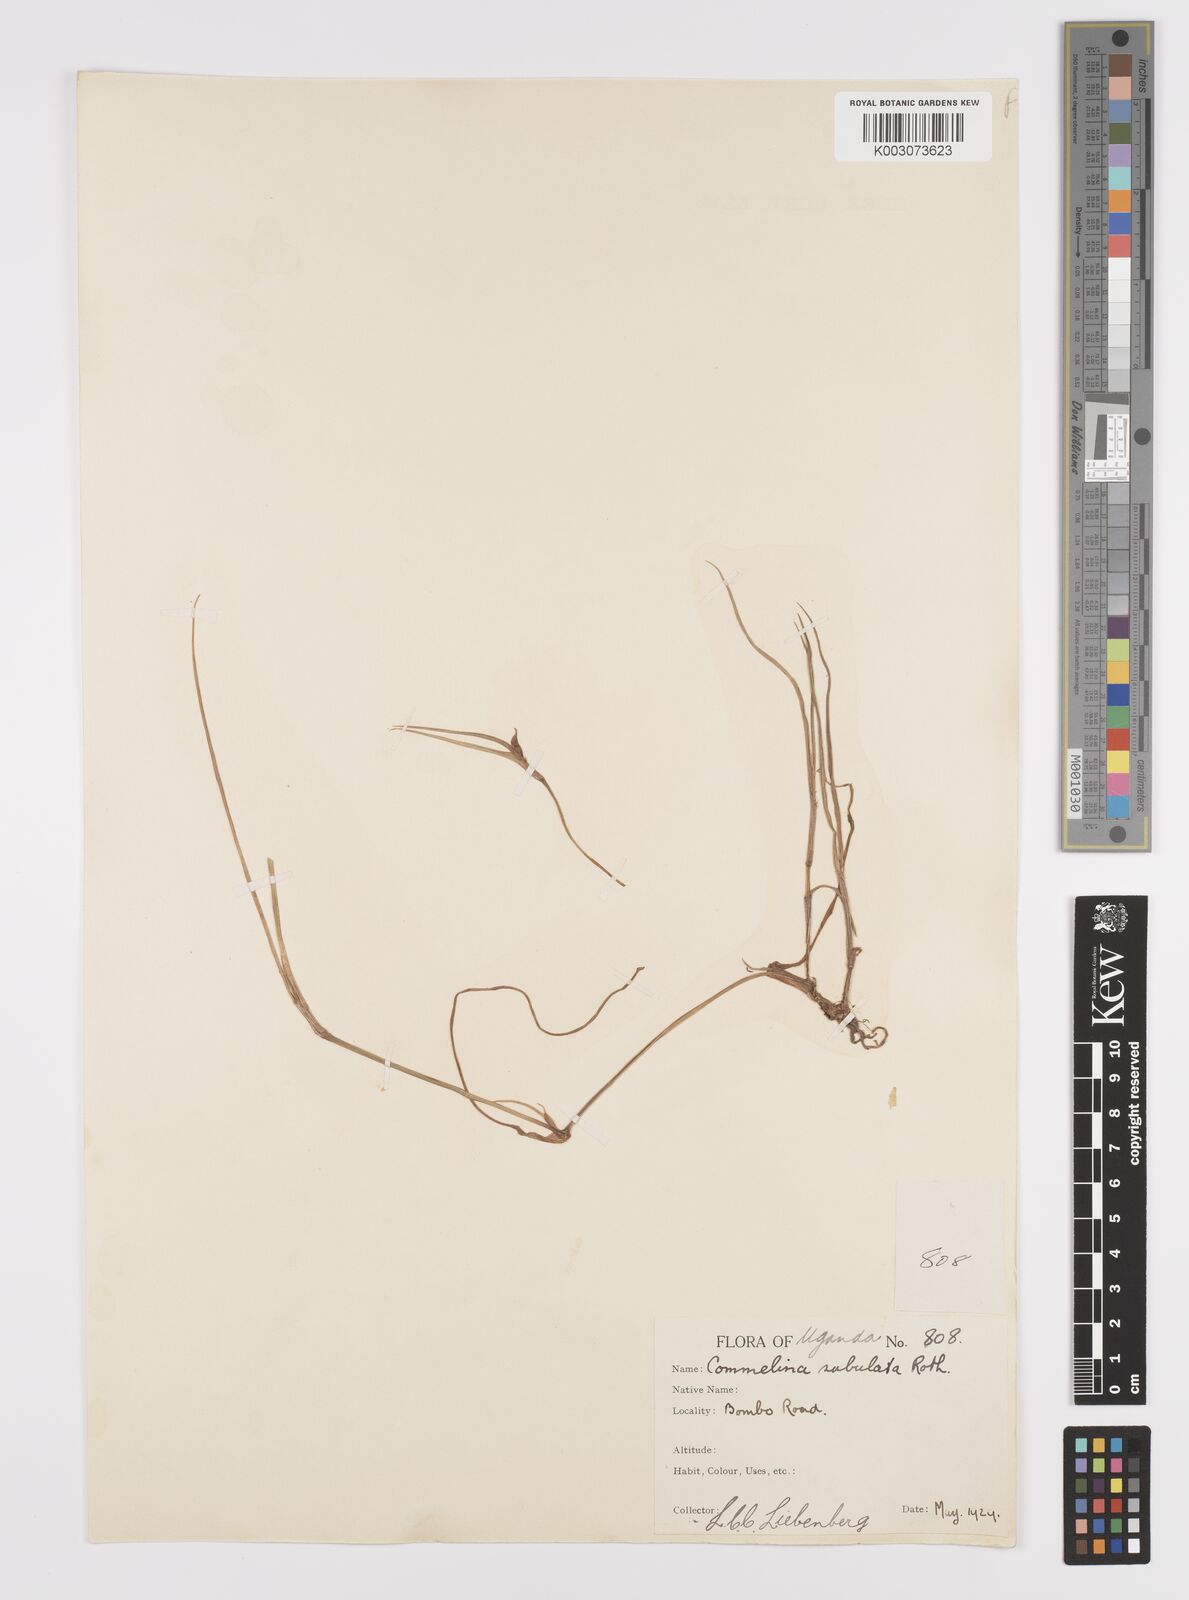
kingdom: Plantae
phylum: Tracheophyta
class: Liliopsida
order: Commelinales
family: Commelinaceae
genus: Commelina
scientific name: Commelina purpurea
